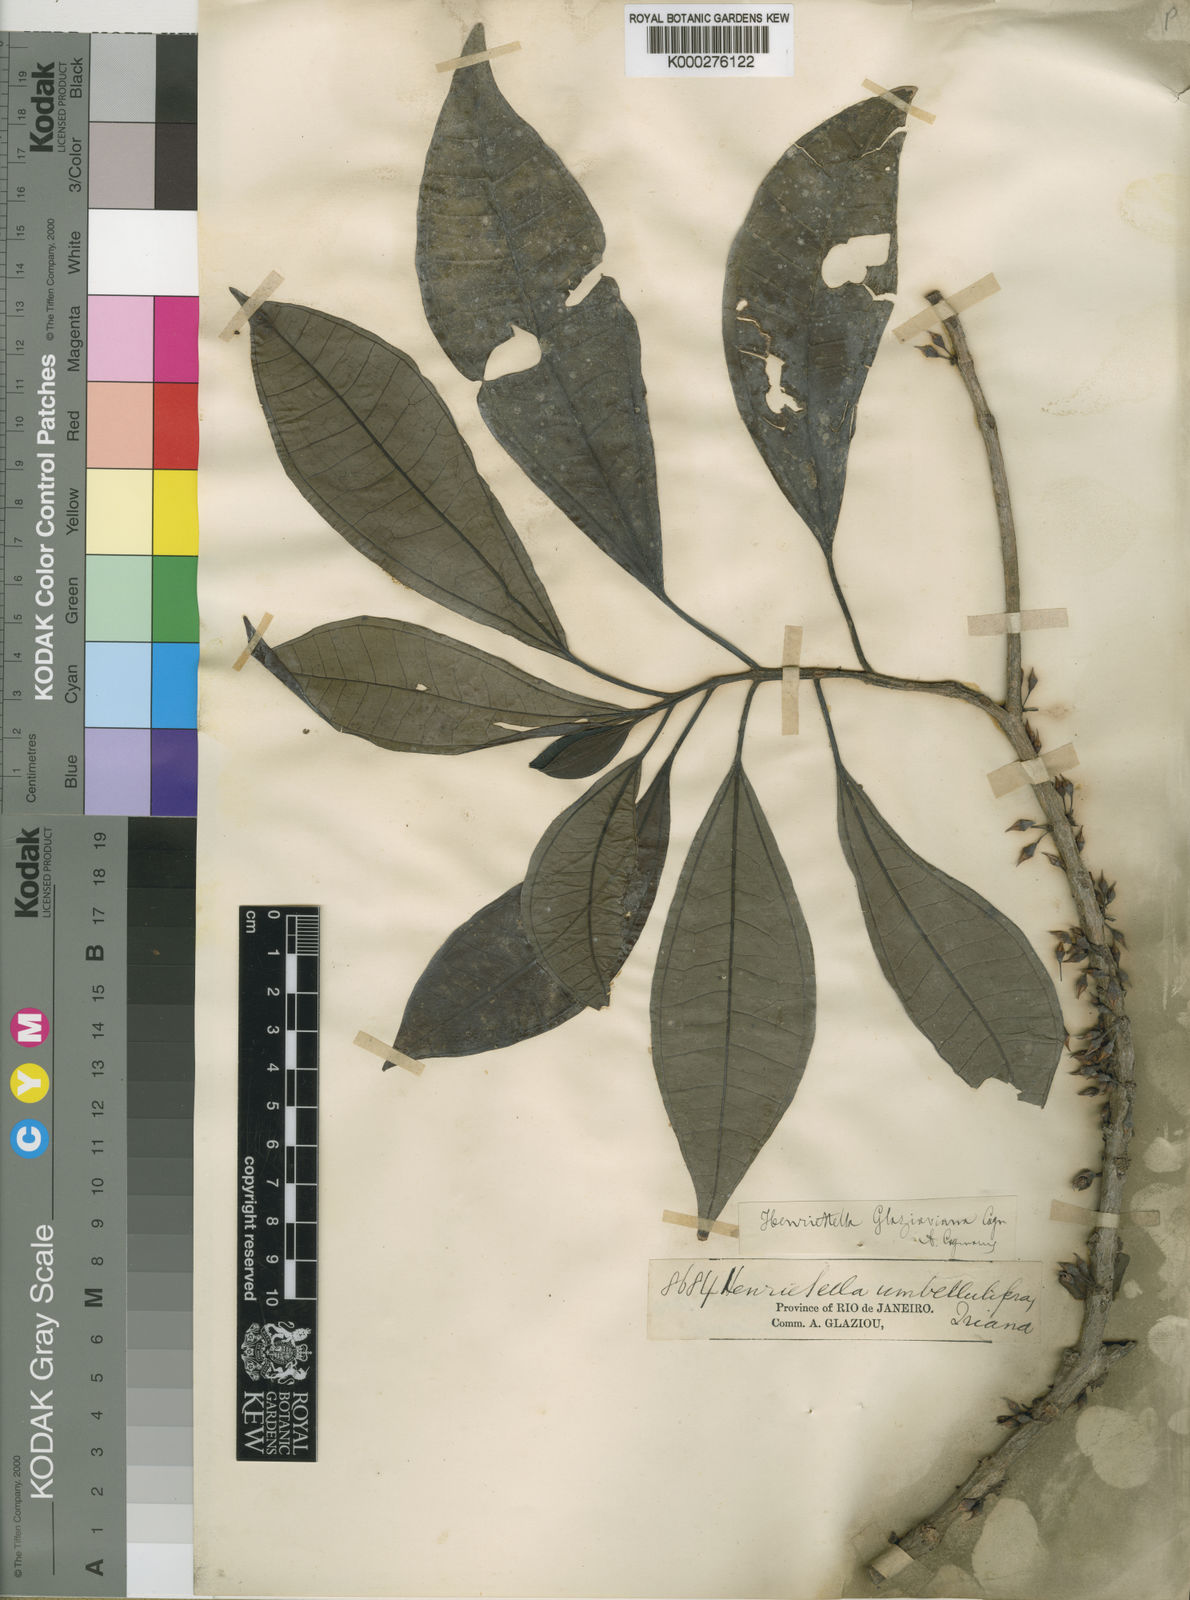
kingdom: Plantae
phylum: Tracheophyta
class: Magnoliopsida
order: Myrtales
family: Melastomataceae
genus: Henriettea
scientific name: Henriettea glabra
